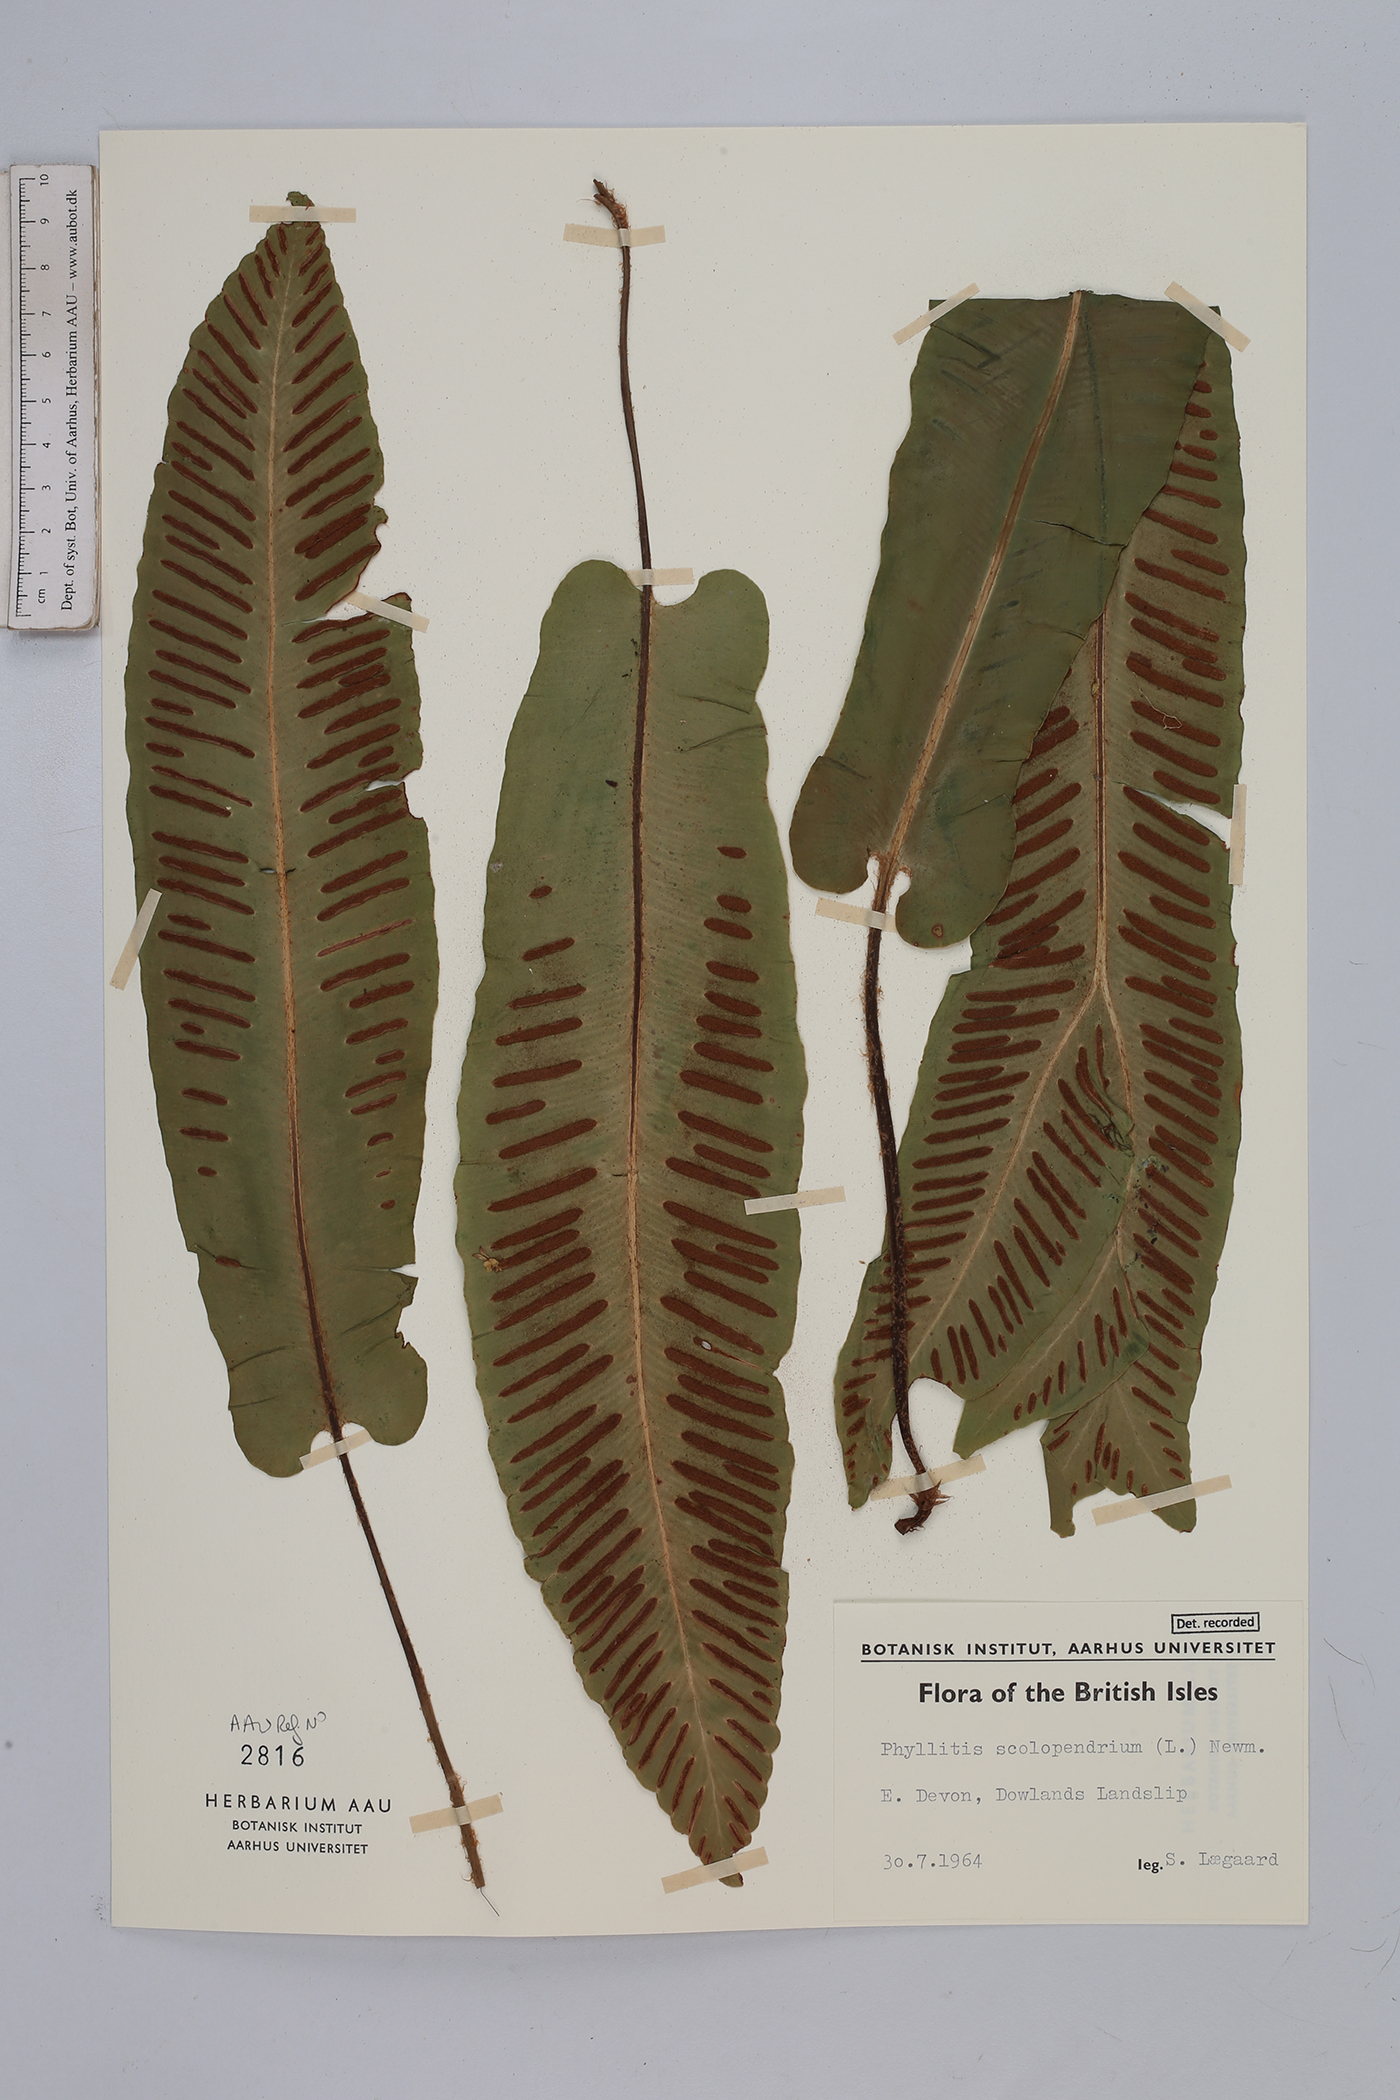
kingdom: Plantae
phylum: Tracheophyta
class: Polypodiopsida
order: Polypodiales
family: Aspleniaceae
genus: Asplenium
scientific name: Asplenium scolopendrium
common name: Hart's-tongue fern
